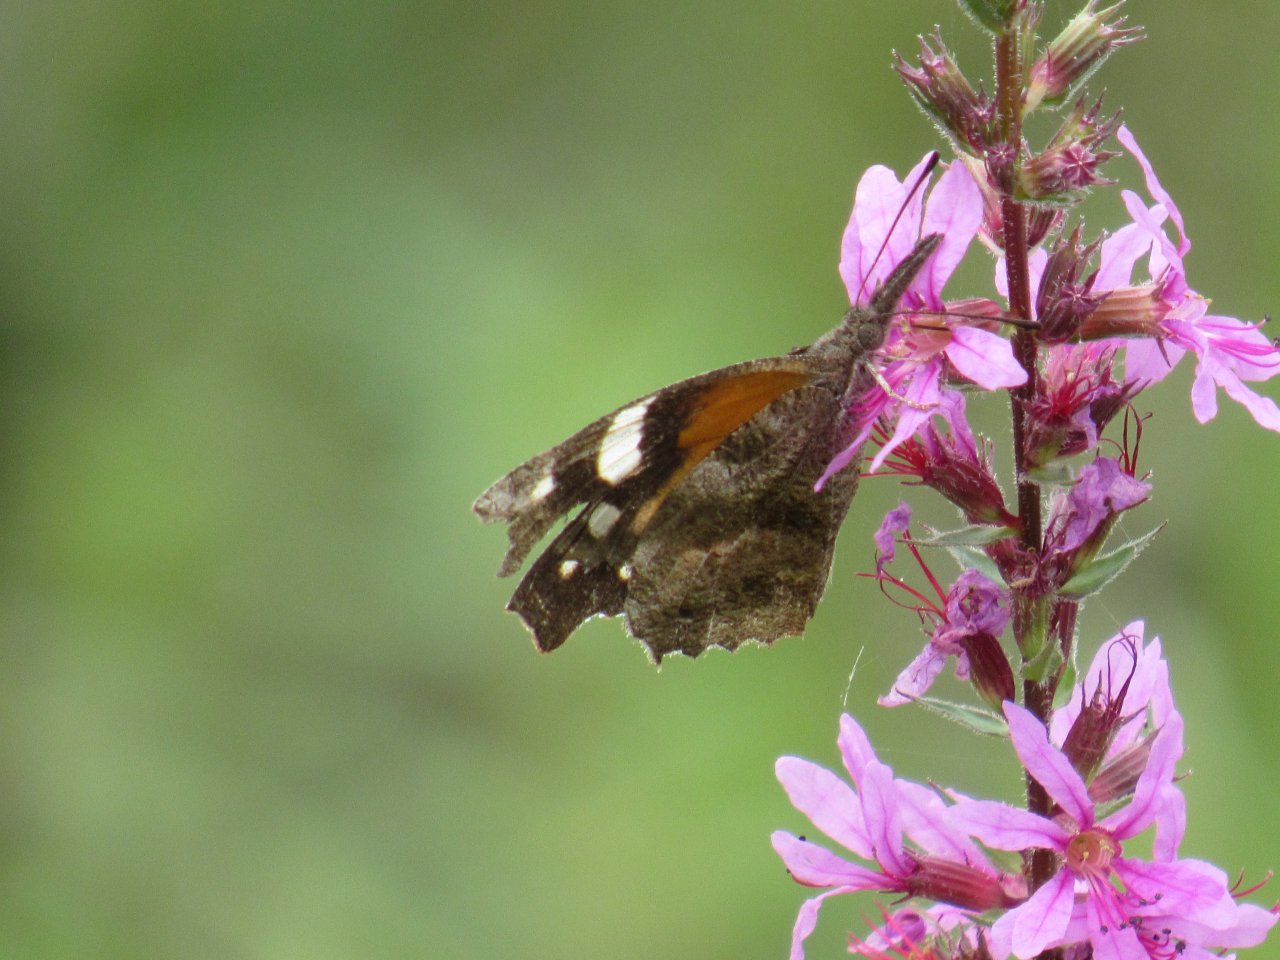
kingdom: Animalia
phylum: Arthropoda
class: Insecta
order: Lepidoptera
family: Nymphalidae
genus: Libytheana
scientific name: Libytheana carinenta
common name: American Snout
